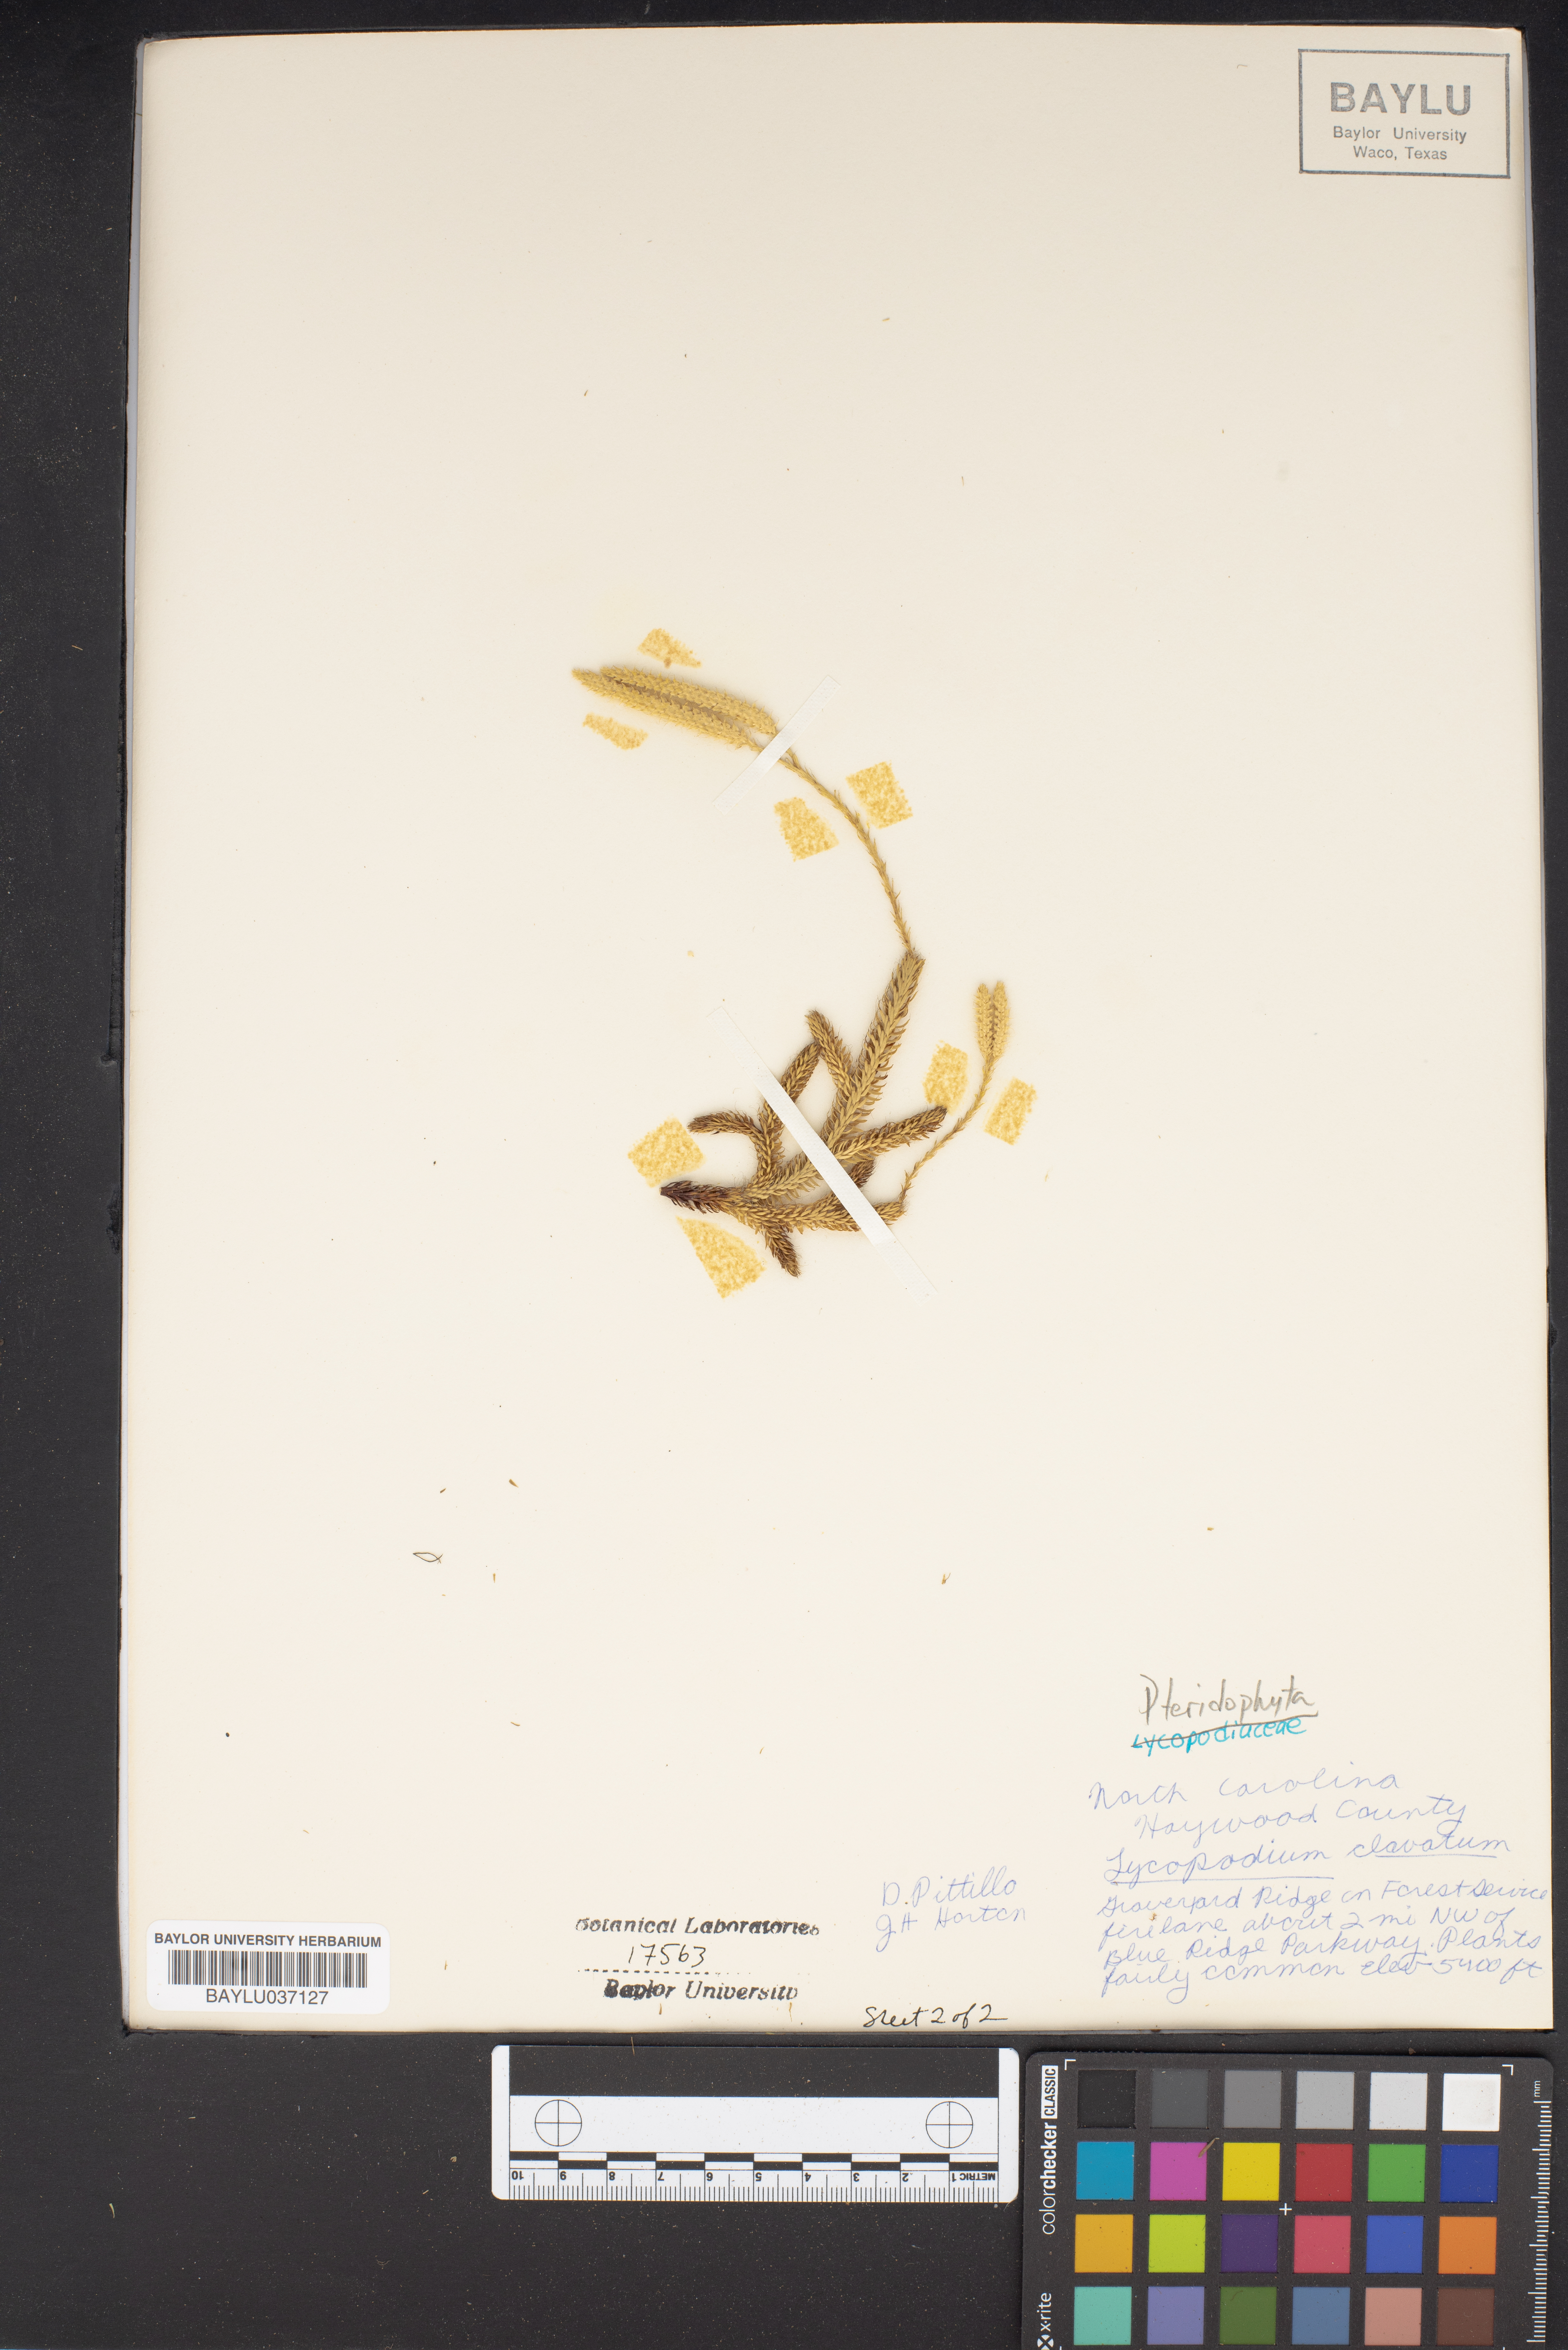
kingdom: Plantae
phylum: Tracheophyta
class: Lycopodiopsida
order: Lycopodiales
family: Lycopodiaceae
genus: Lycopodium
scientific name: Lycopodium clavatum
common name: Stag's-horn clubmoss
